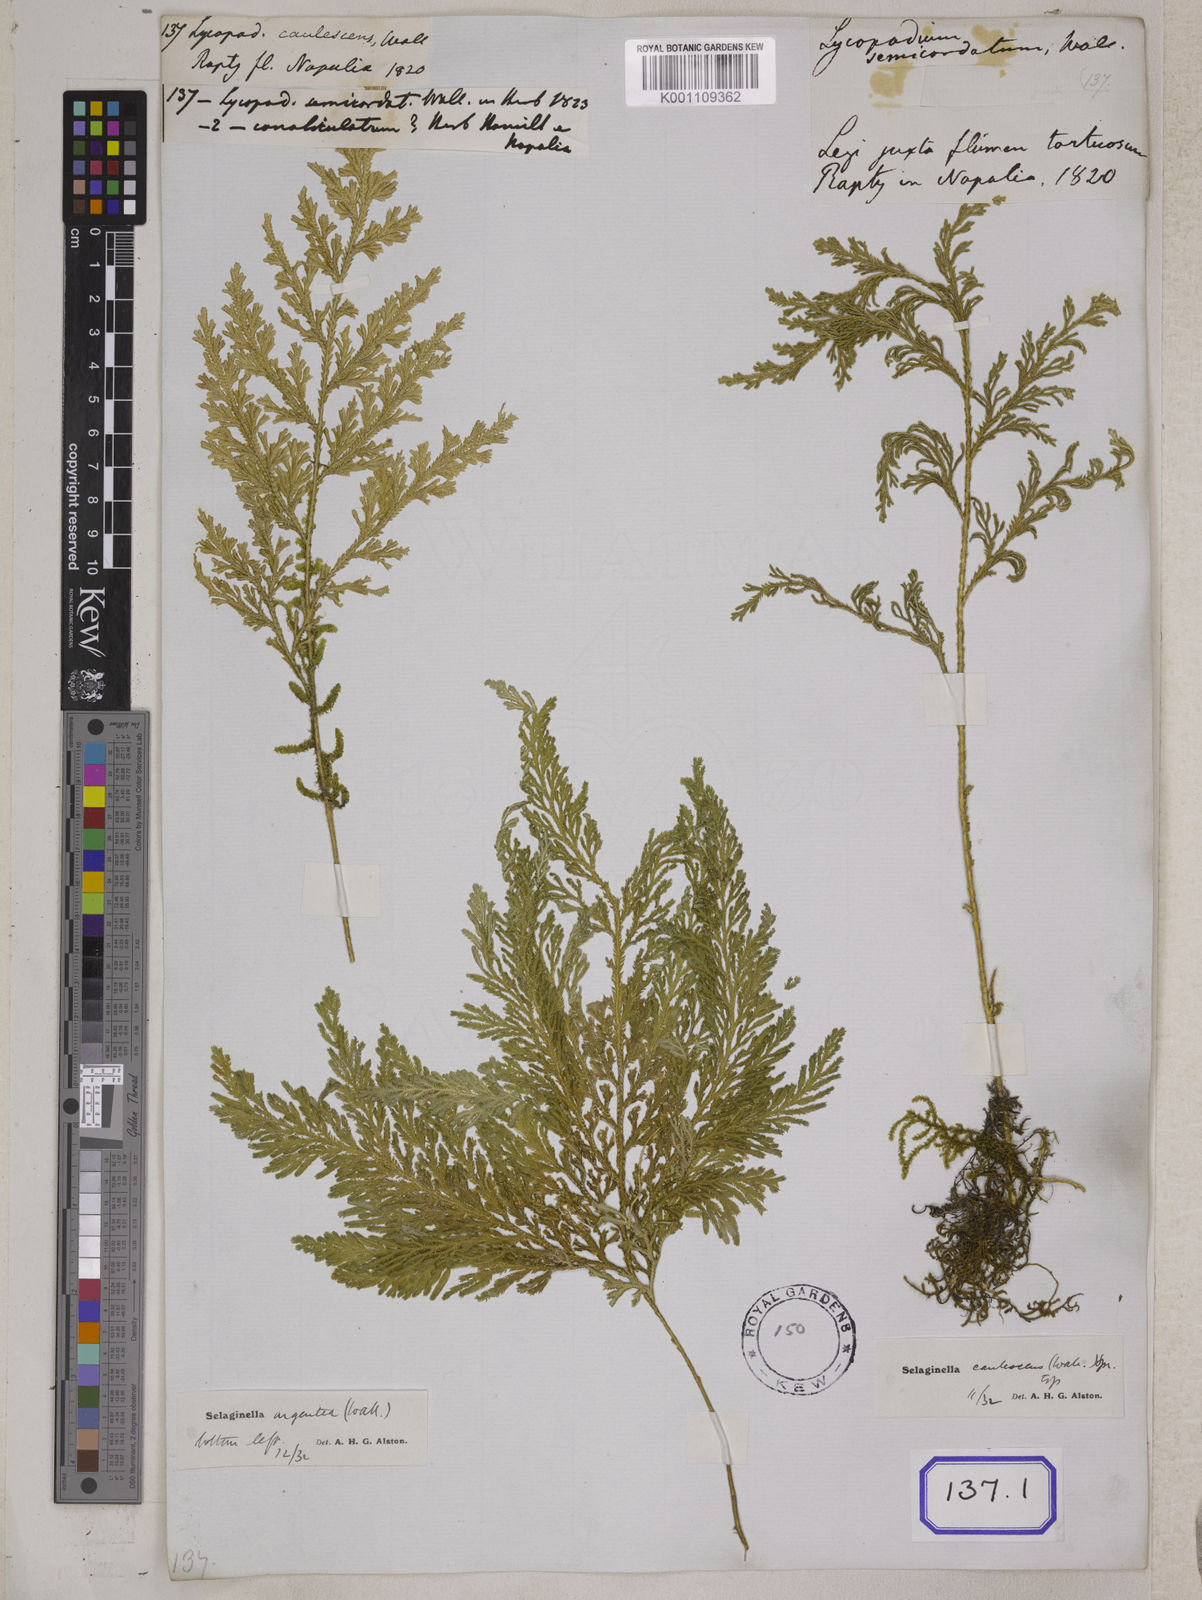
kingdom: Plantae
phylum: Tracheophyta
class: Lycopodiopsida
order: Lycopodiales
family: Lycopodiaceae
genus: Lycopodium
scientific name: Lycopodium
